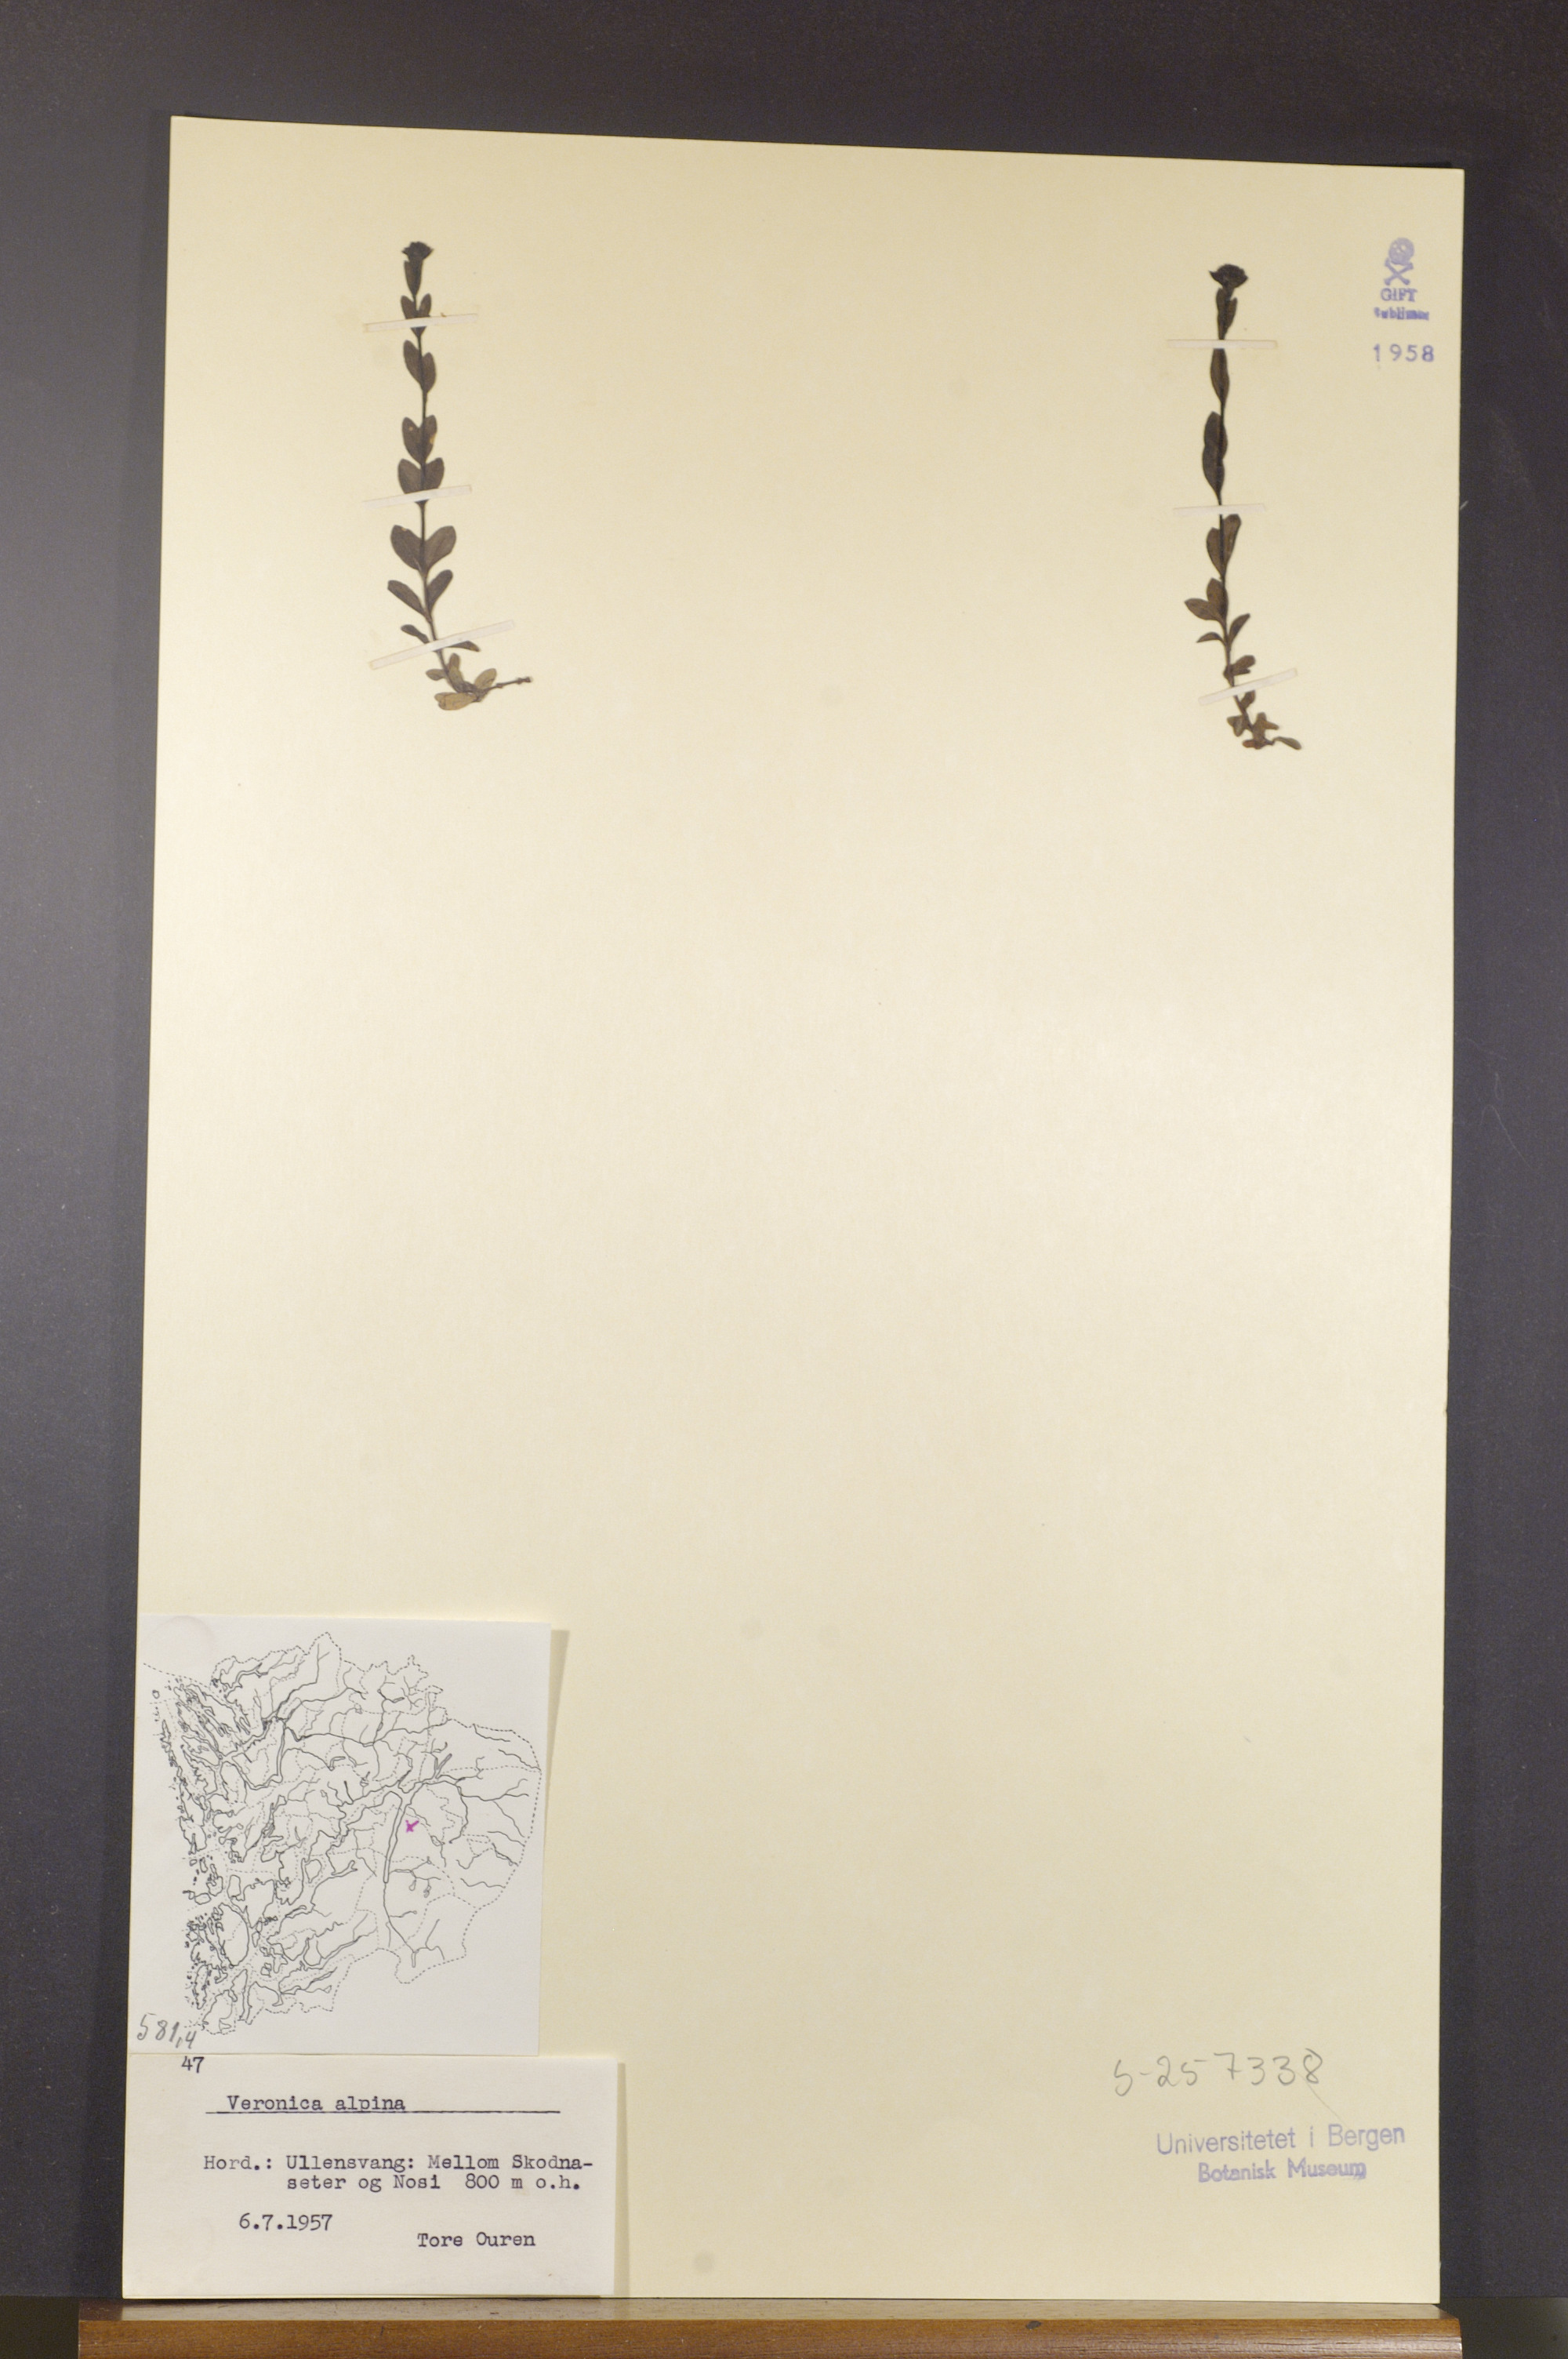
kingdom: Plantae
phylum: Tracheophyta
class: Magnoliopsida
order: Lamiales
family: Plantaginaceae
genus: Veronica
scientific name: Veronica alpina
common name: Alpine speedwell
